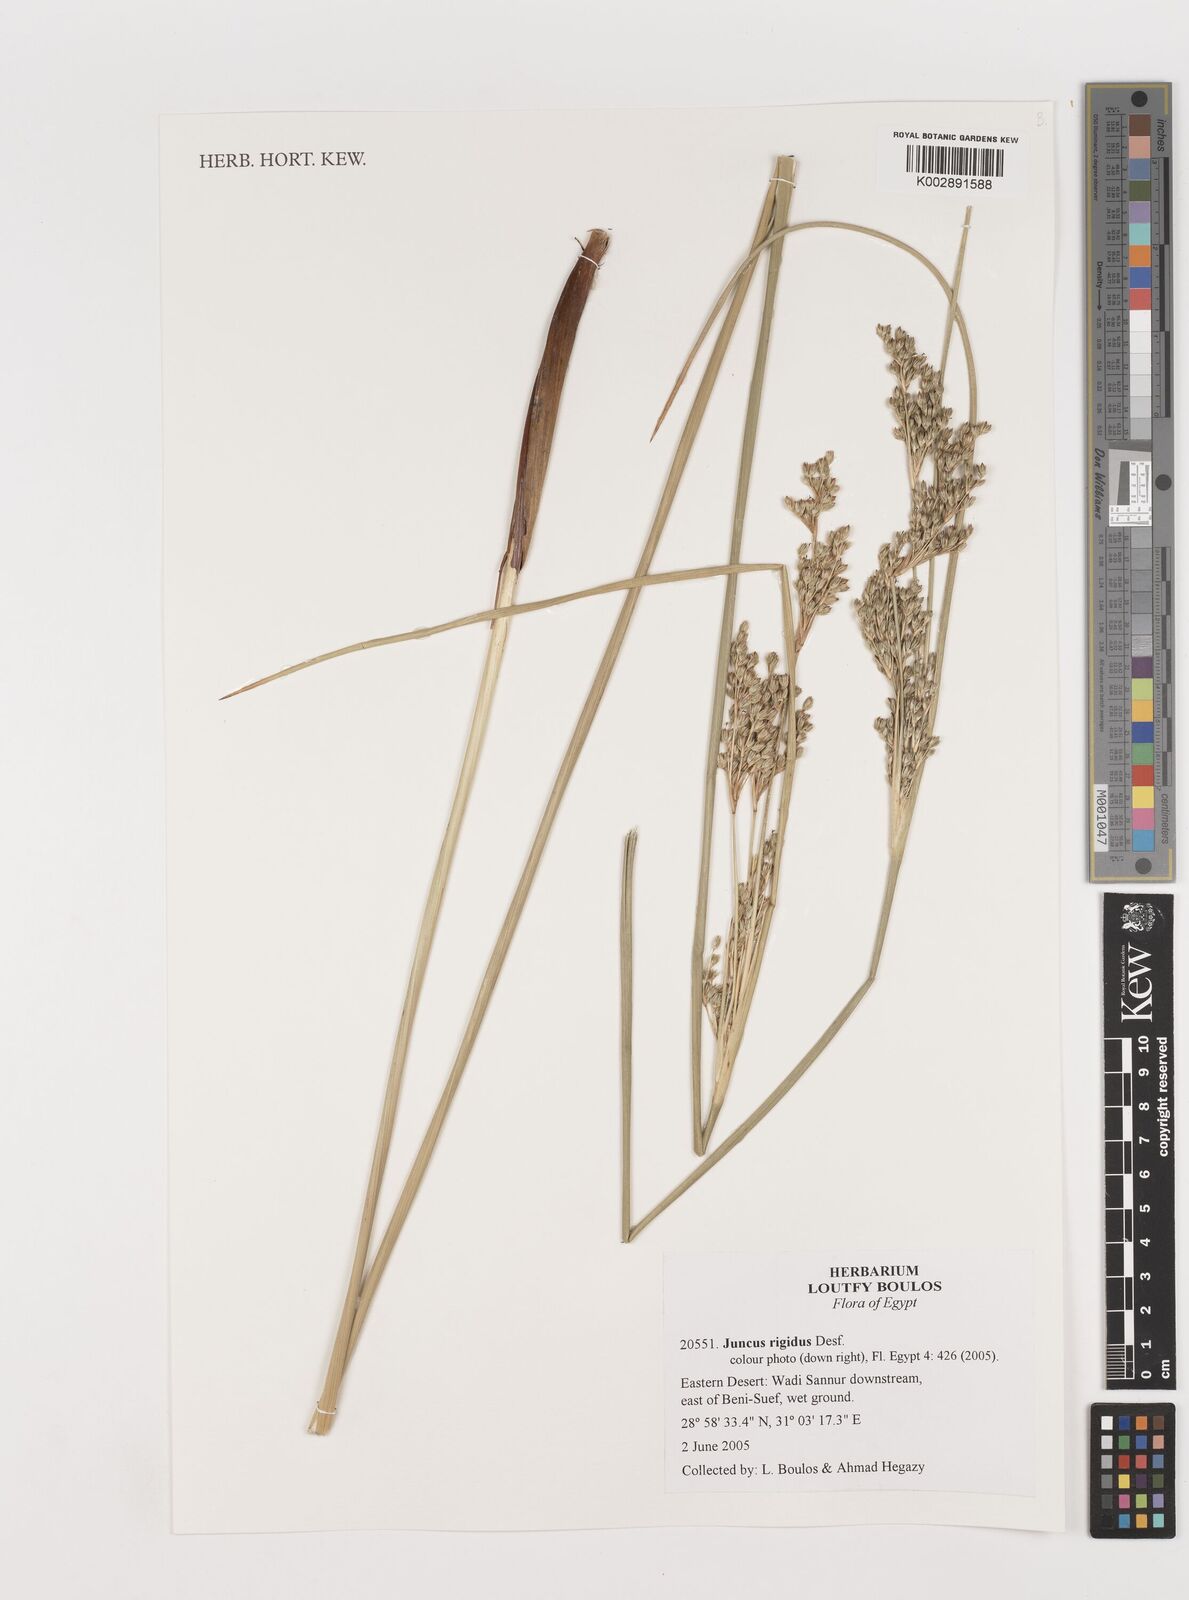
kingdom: Plantae
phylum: Tracheophyta
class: Liliopsida
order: Poales
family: Juncaceae
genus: Juncus
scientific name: Juncus rigidus
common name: Hard sea rush
